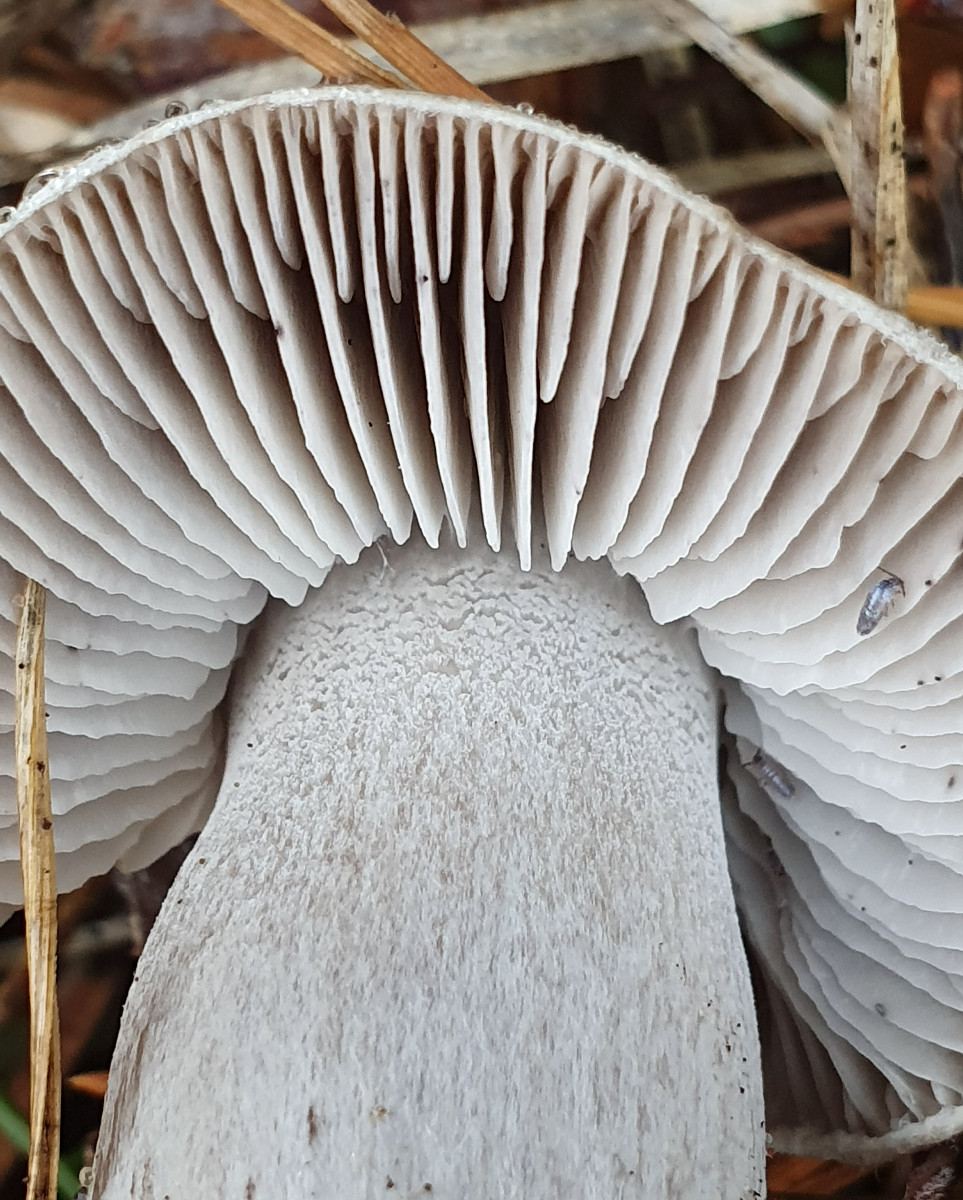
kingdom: Fungi
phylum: Basidiomycota
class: Agaricomycetes
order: Agaricales
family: Tricholomataceae
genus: Tricholoma
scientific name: Tricholoma terreum
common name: jordfarvet ridderhat
